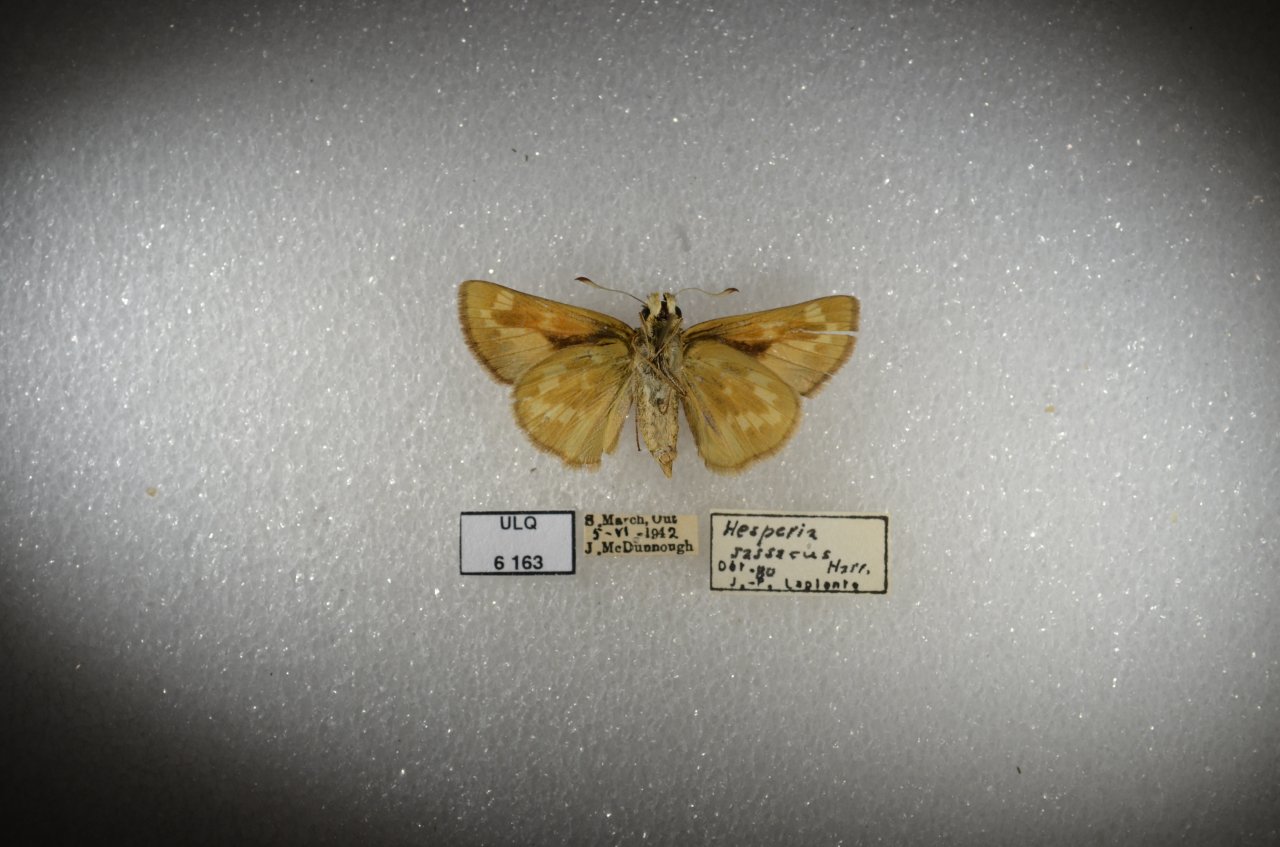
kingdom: Animalia
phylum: Arthropoda
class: Insecta
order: Lepidoptera
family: Hesperiidae
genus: Hesperia
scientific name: Hesperia sassacus
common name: Sassacus Skipper
